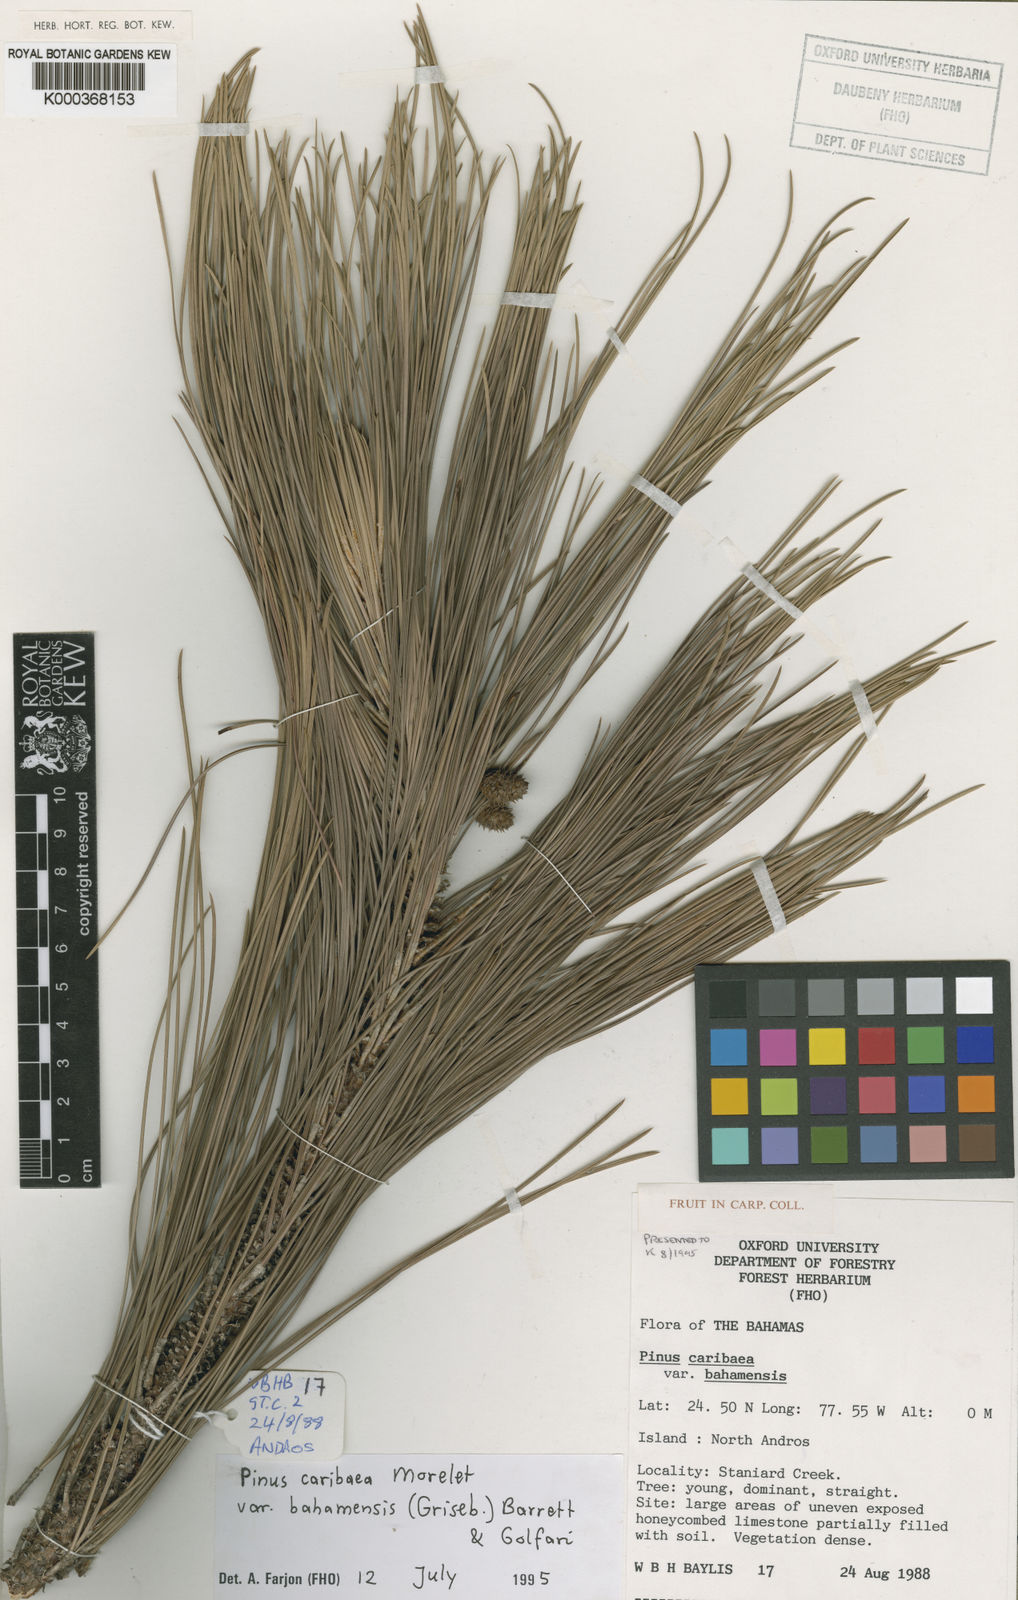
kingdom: Plantae
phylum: Tracheophyta
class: Pinopsida
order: Pinales
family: Pinaceae
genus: Pinus
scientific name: Pinus caribaea
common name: Caribbean pine
